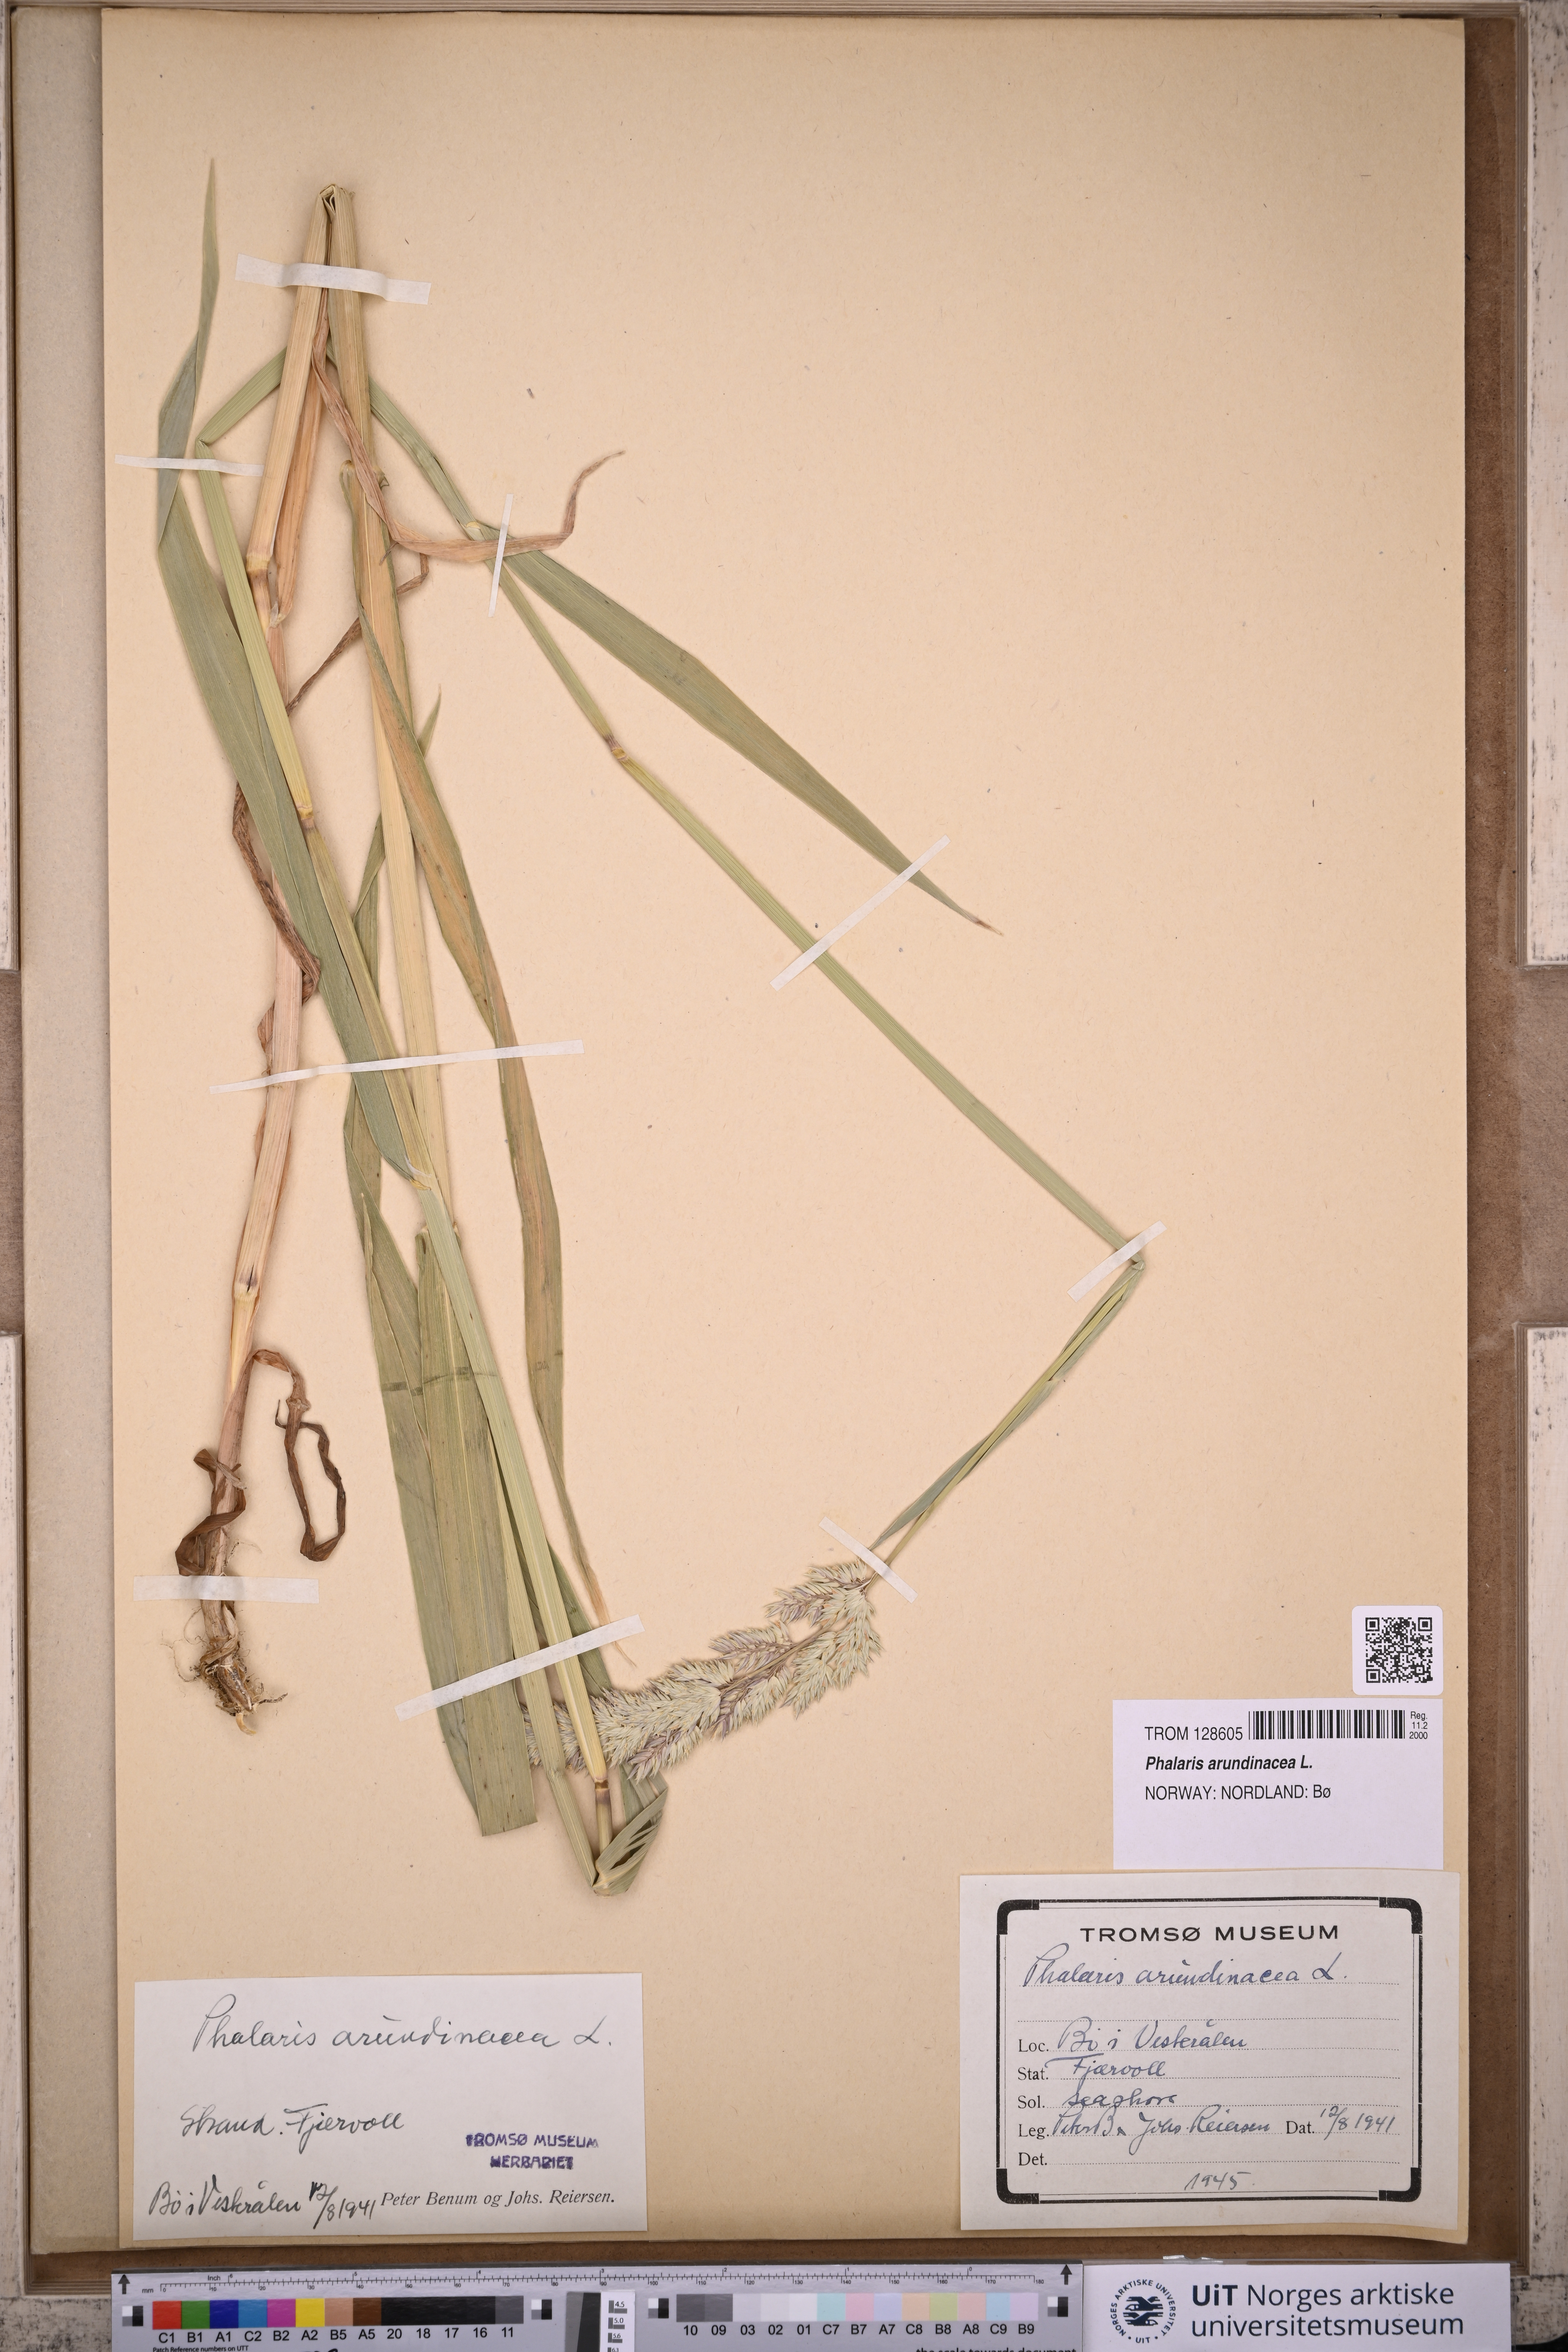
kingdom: Plantae
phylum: Tracheophyta
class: Liliopsida
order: Poales
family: Poaceae
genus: Phalaris
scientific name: Phalaris arundinacea
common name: Reed canary-grass
